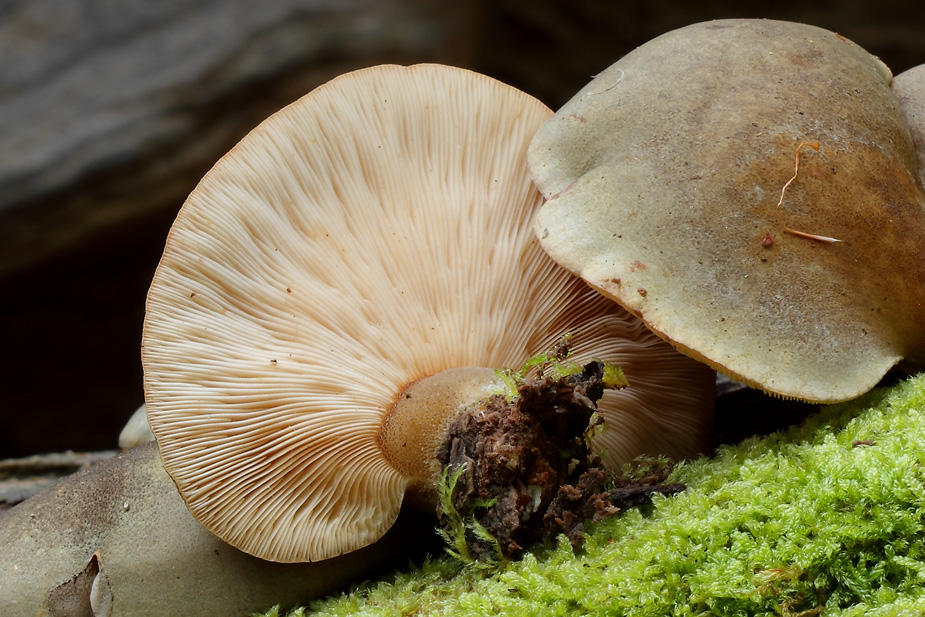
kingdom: Fungi
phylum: Basidiomycota
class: Agaricomycetes
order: Agaricales
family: Sarcomyxaceae
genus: Sarcomyxa
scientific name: Sarcomyxa serotina
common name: gummihat
